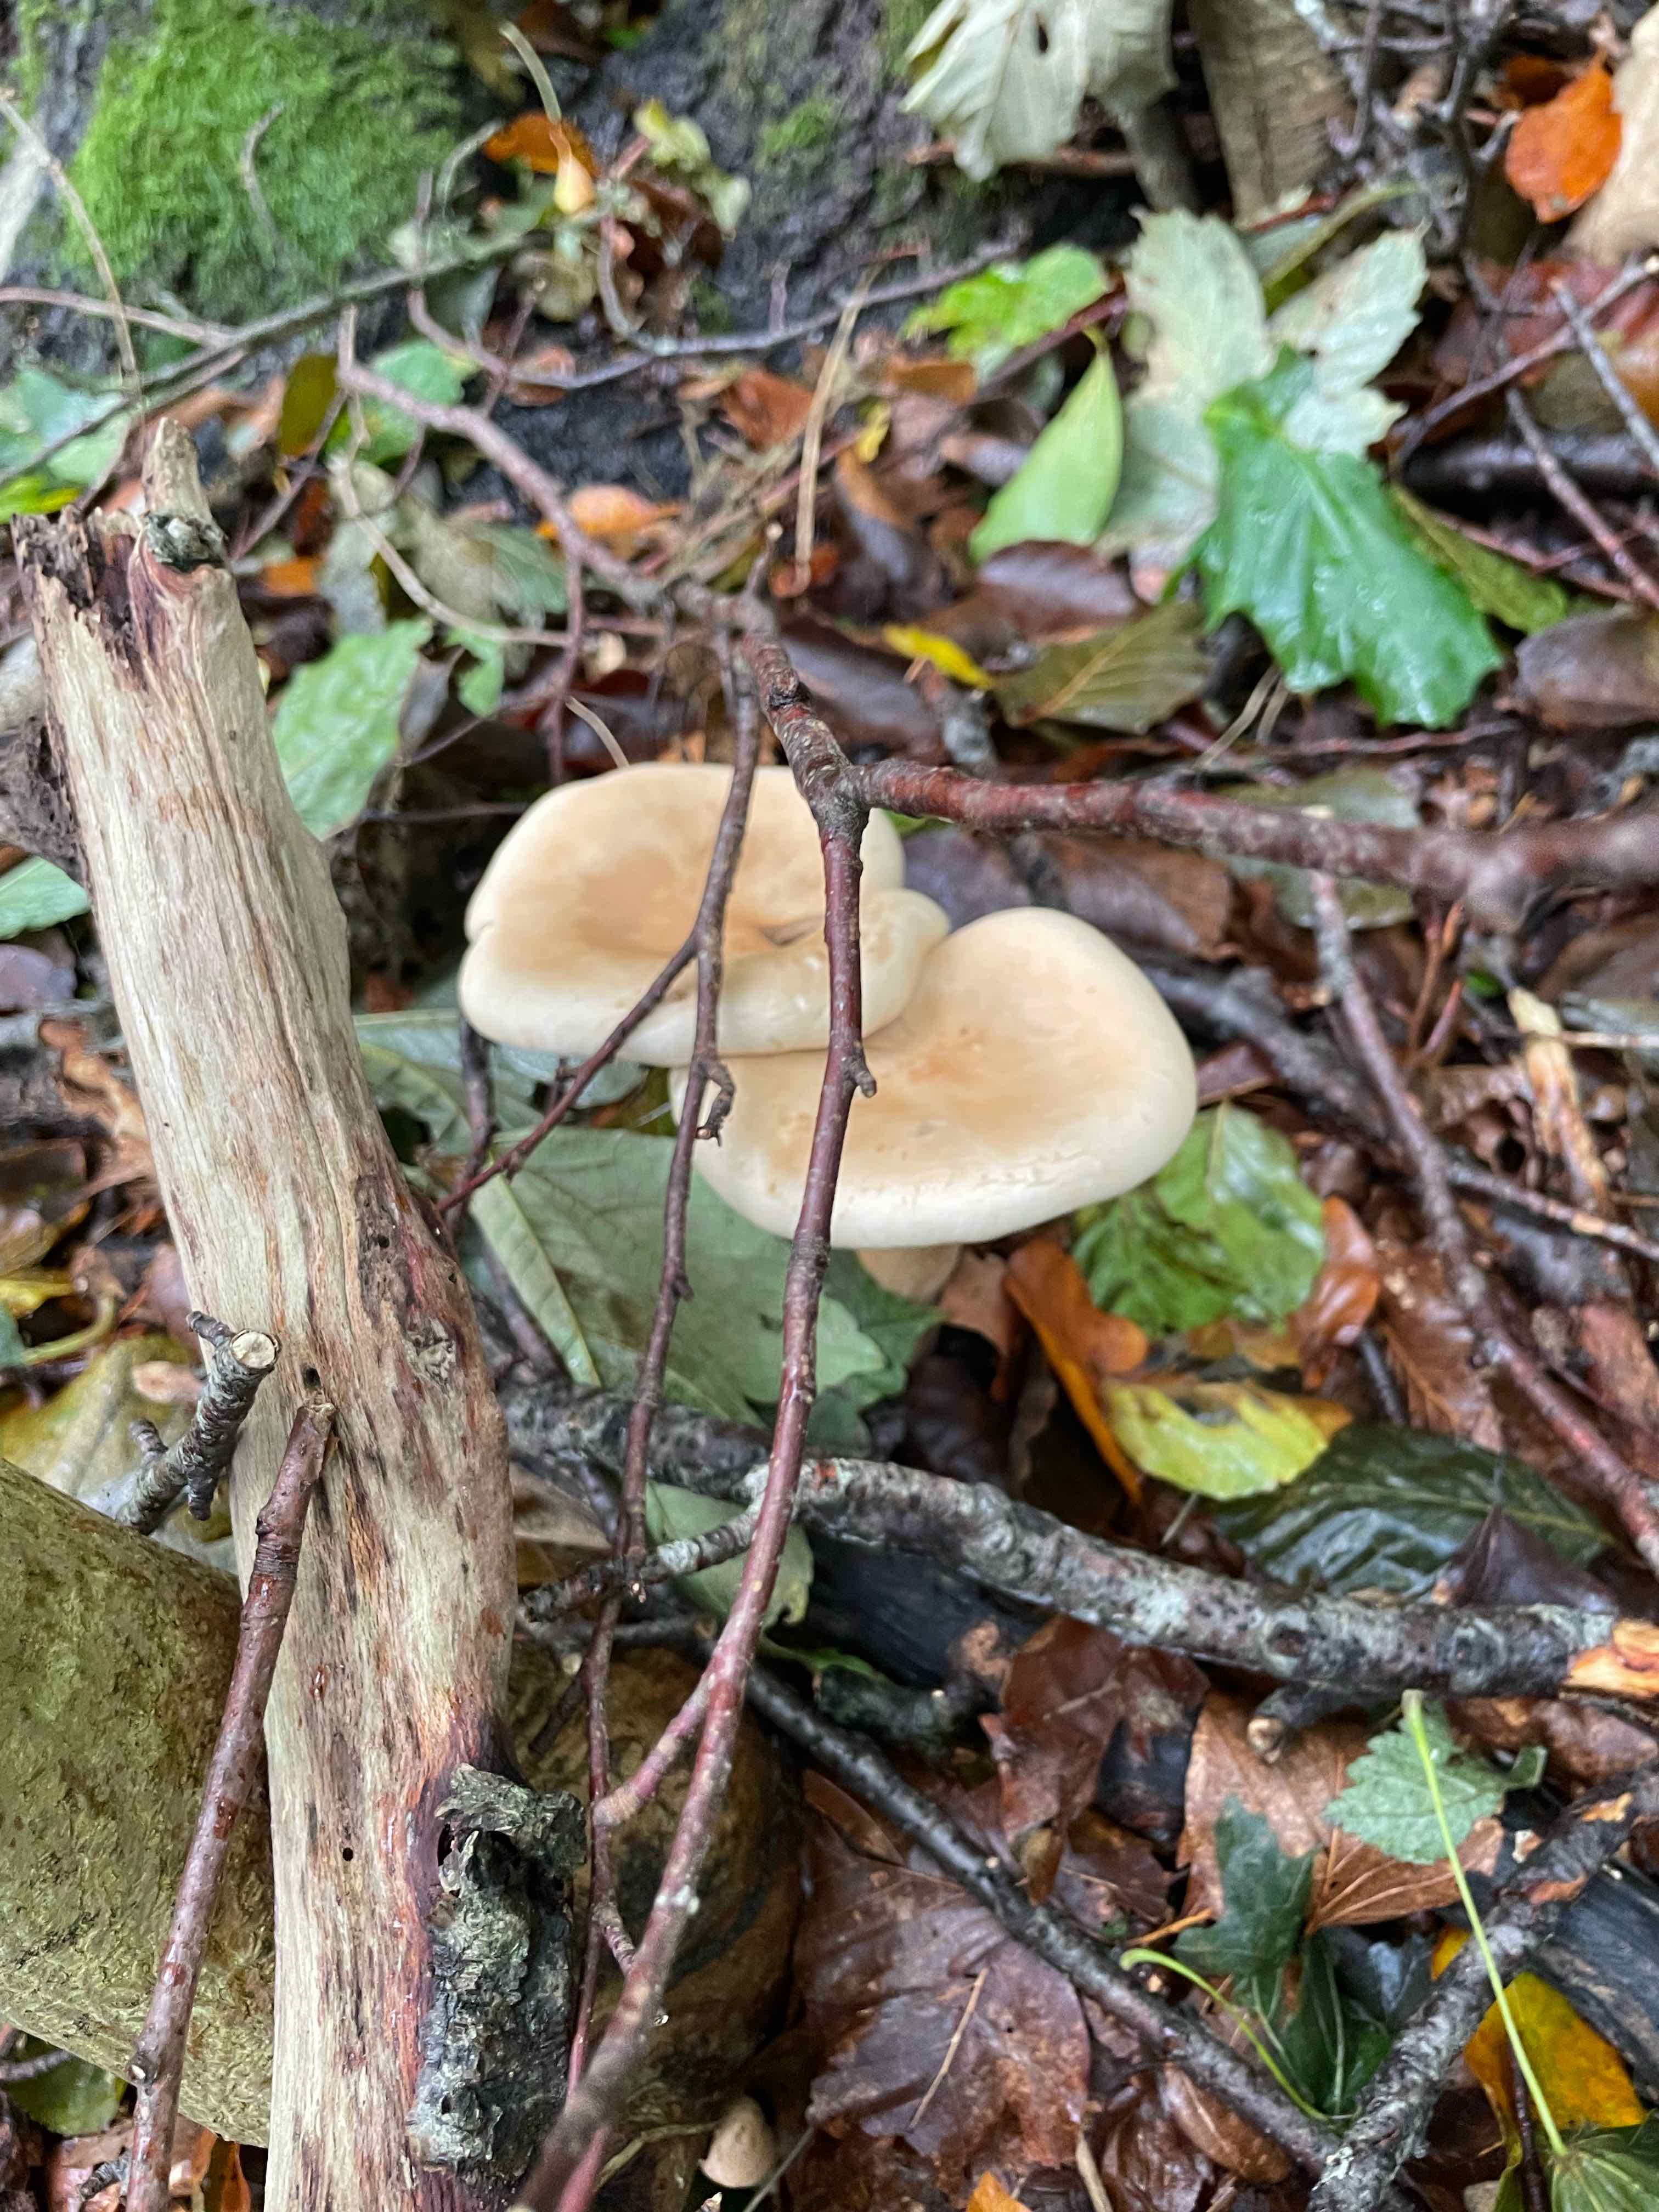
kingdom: Fungi
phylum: Basidiomycota
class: Agaricomycetes
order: Agaricales
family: Tricholomataceae
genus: Infundibulicybe
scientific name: Infundibulicybe geotropa
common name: stor tragthat
